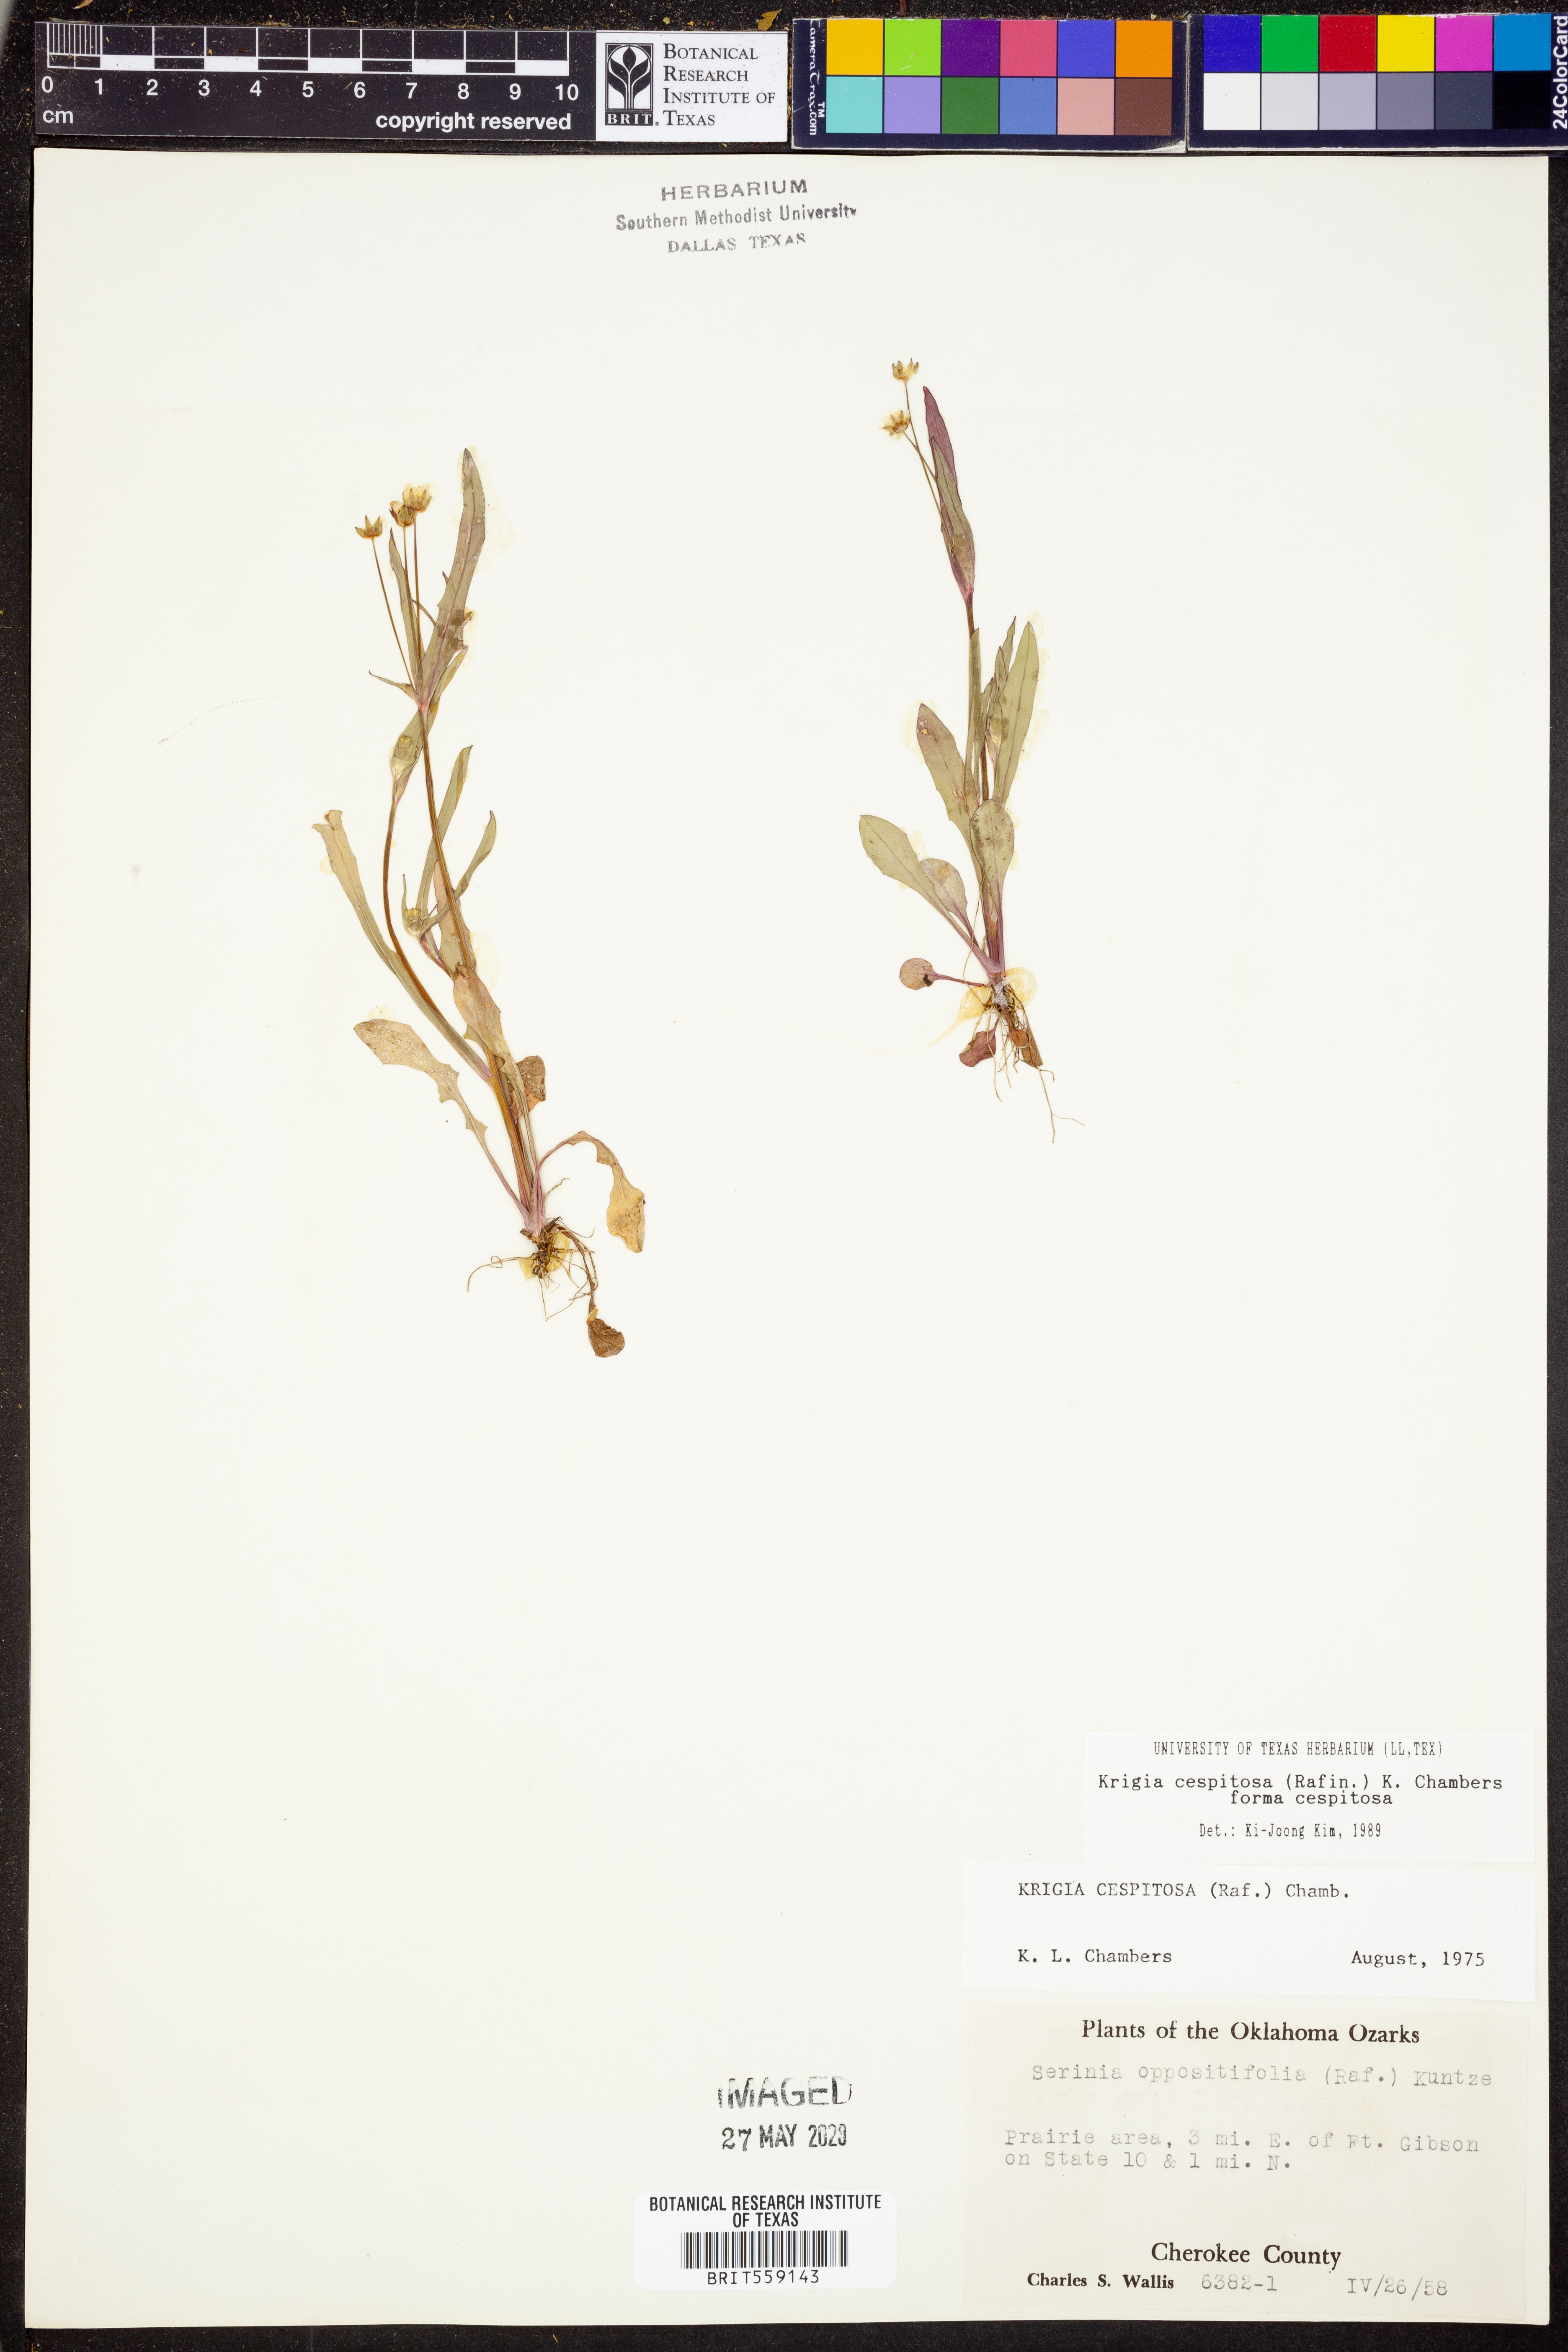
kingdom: Plantae
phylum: Tracheophyta
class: Magnoliopsida
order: Asterales
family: Asteraceae
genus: Krigia
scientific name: Krigia cespitosa
